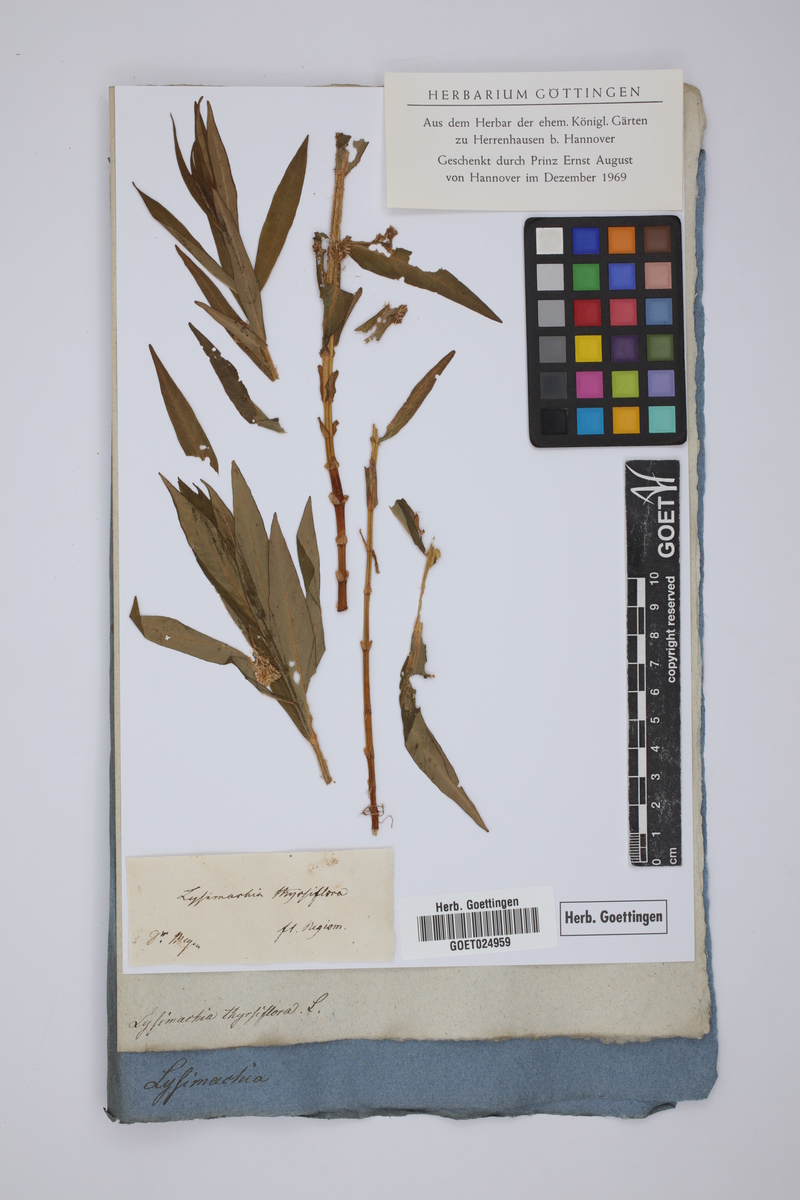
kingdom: Plantae
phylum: Tracheophyta
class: Magnoliopsida
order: Ericales
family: Primulaceae
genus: Lysimachia
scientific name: Lysimachia thyrsiflora
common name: Tufted loosestrife
